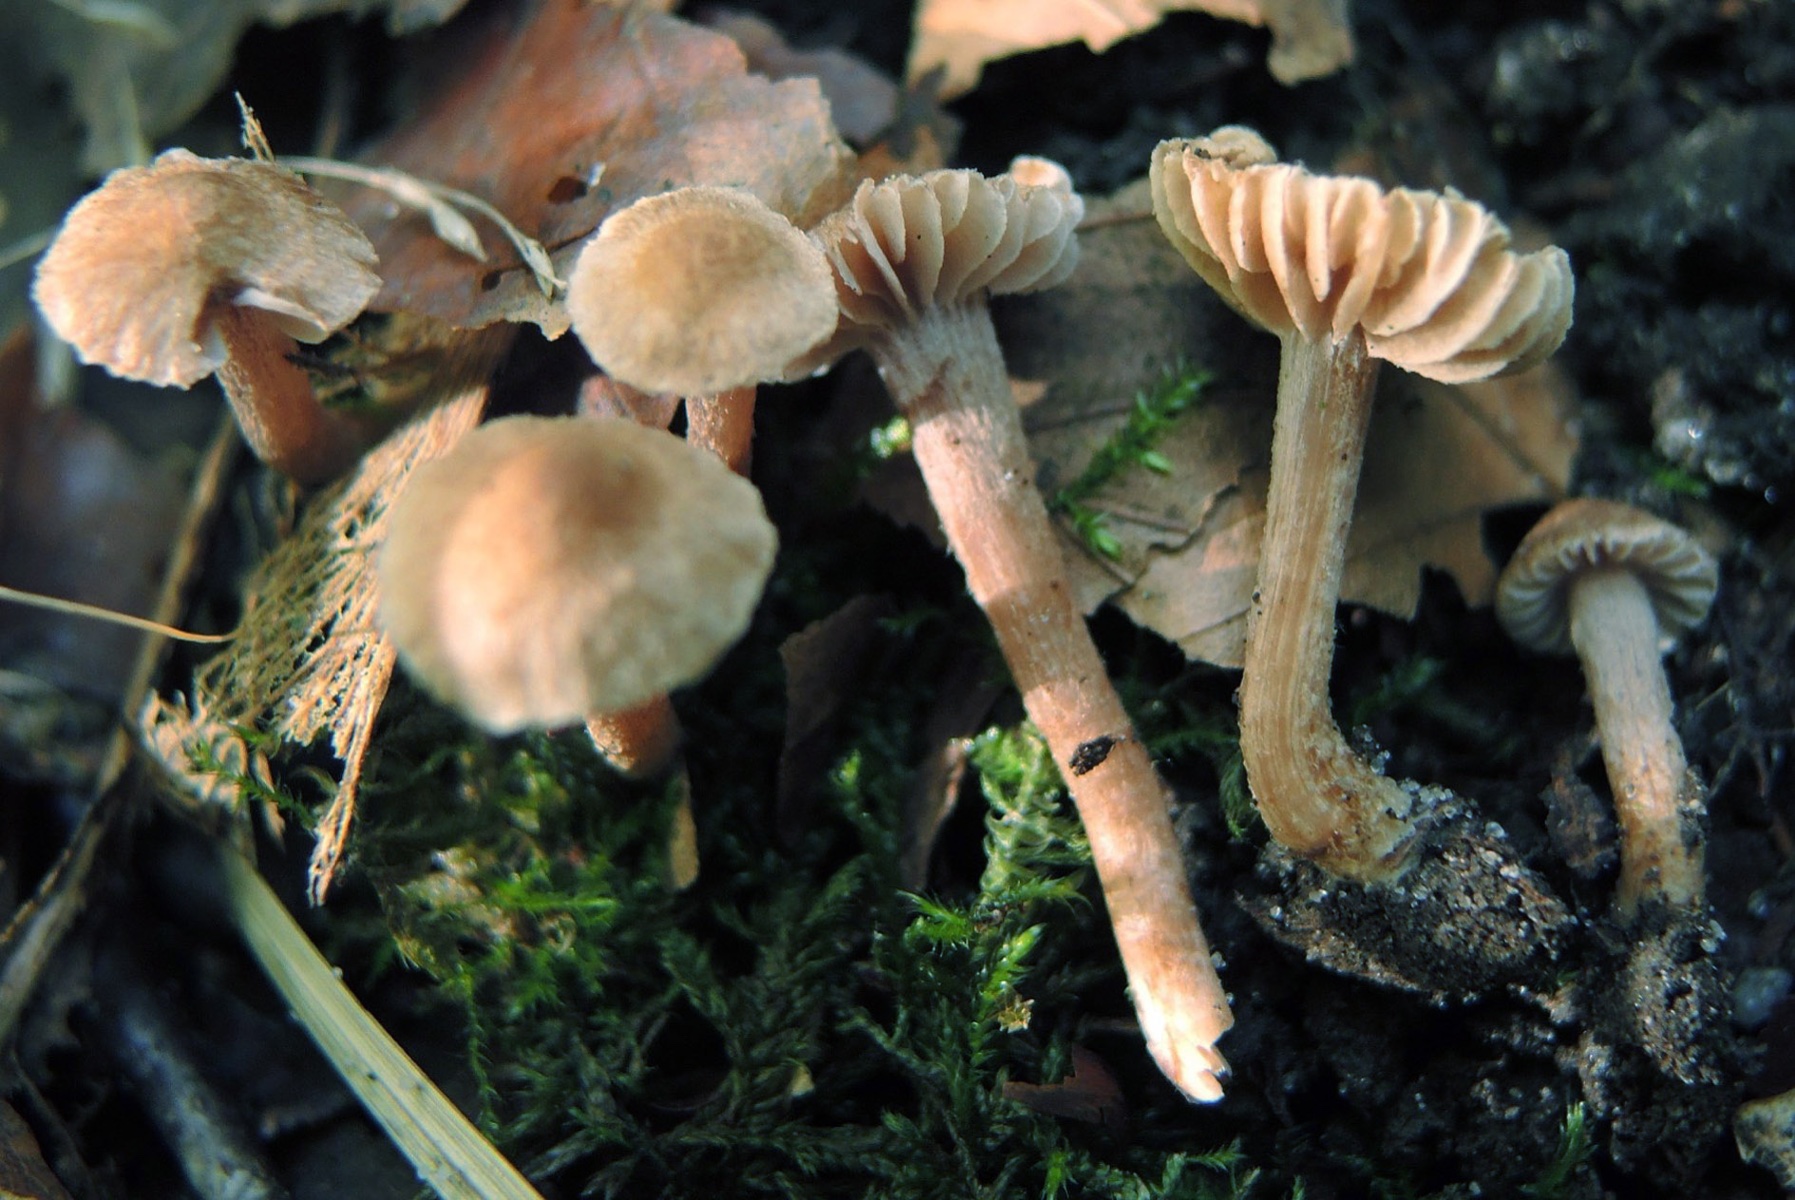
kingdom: Fungi
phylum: Basidiomycota
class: Agaricomycetes
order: Agaricales
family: Inocybaceae
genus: Inocybe
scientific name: Inocybe minima
